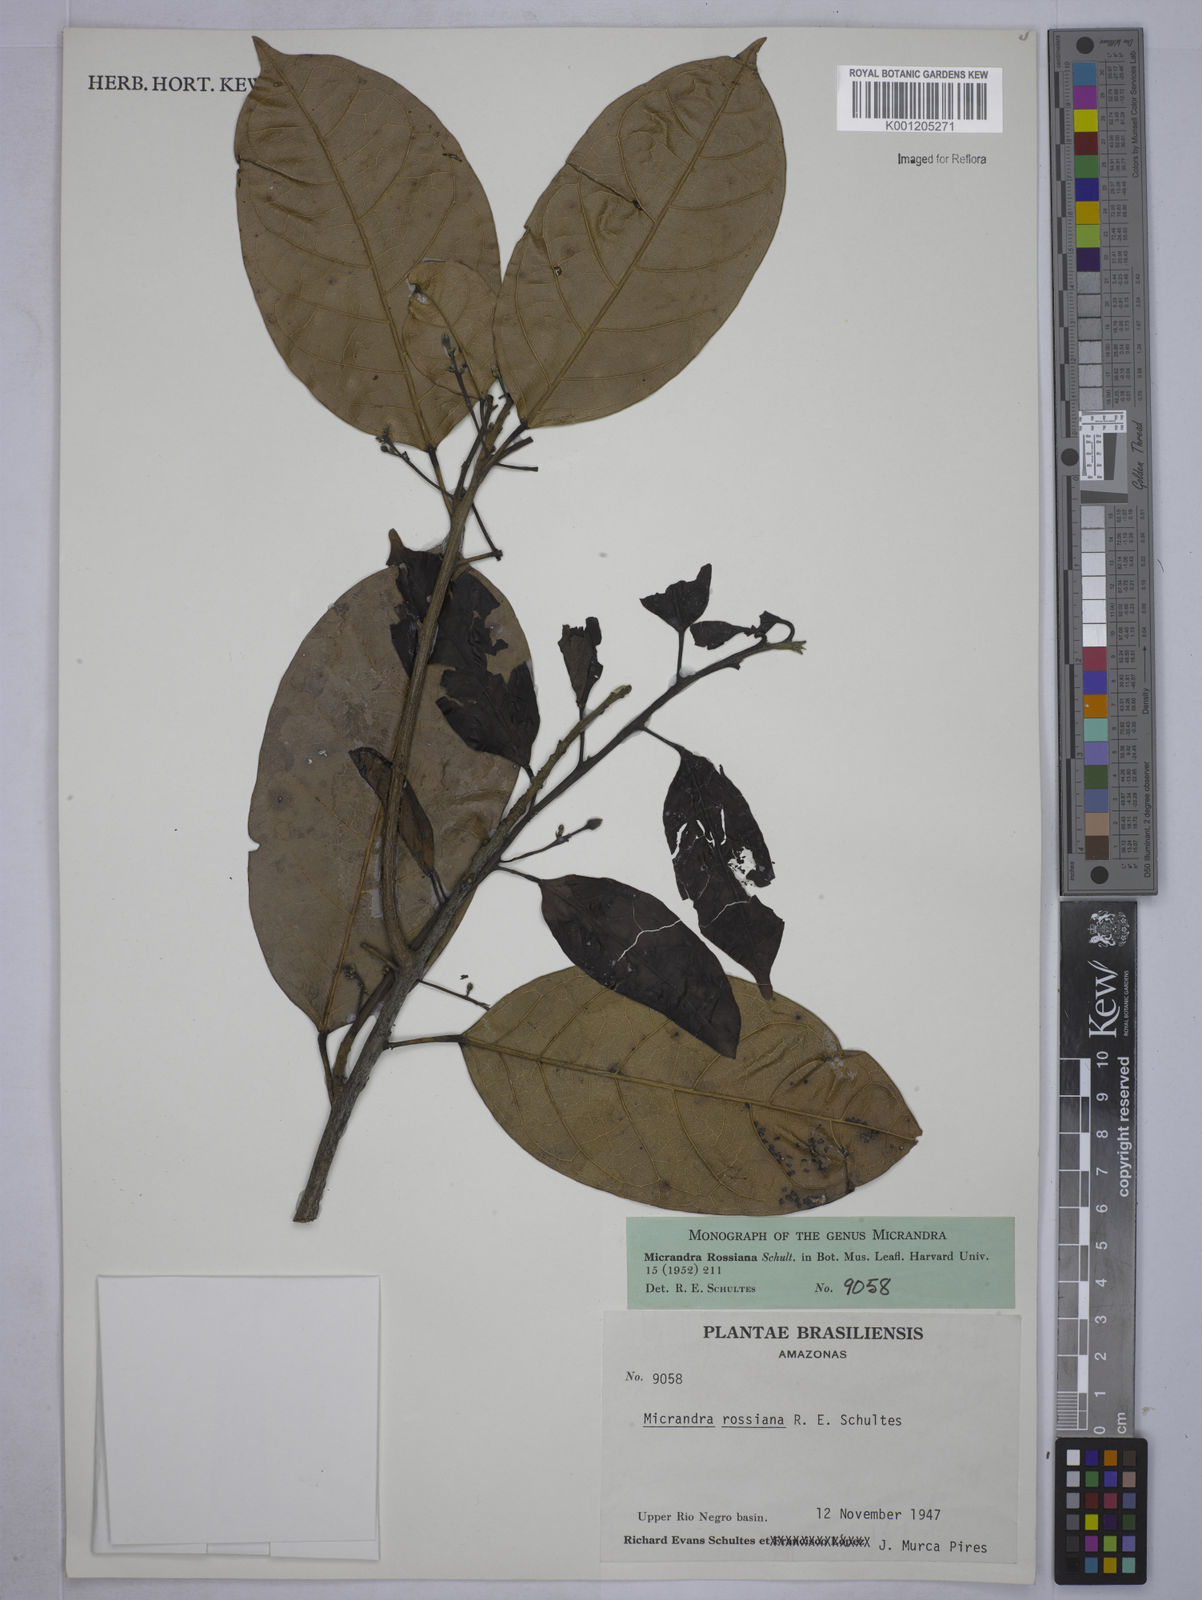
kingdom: Plantae
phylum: Tracheophyta
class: Magnoliopsida
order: Malpighiales
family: Euphorbiaceae
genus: Micrandra
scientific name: Micrandra rossiana
